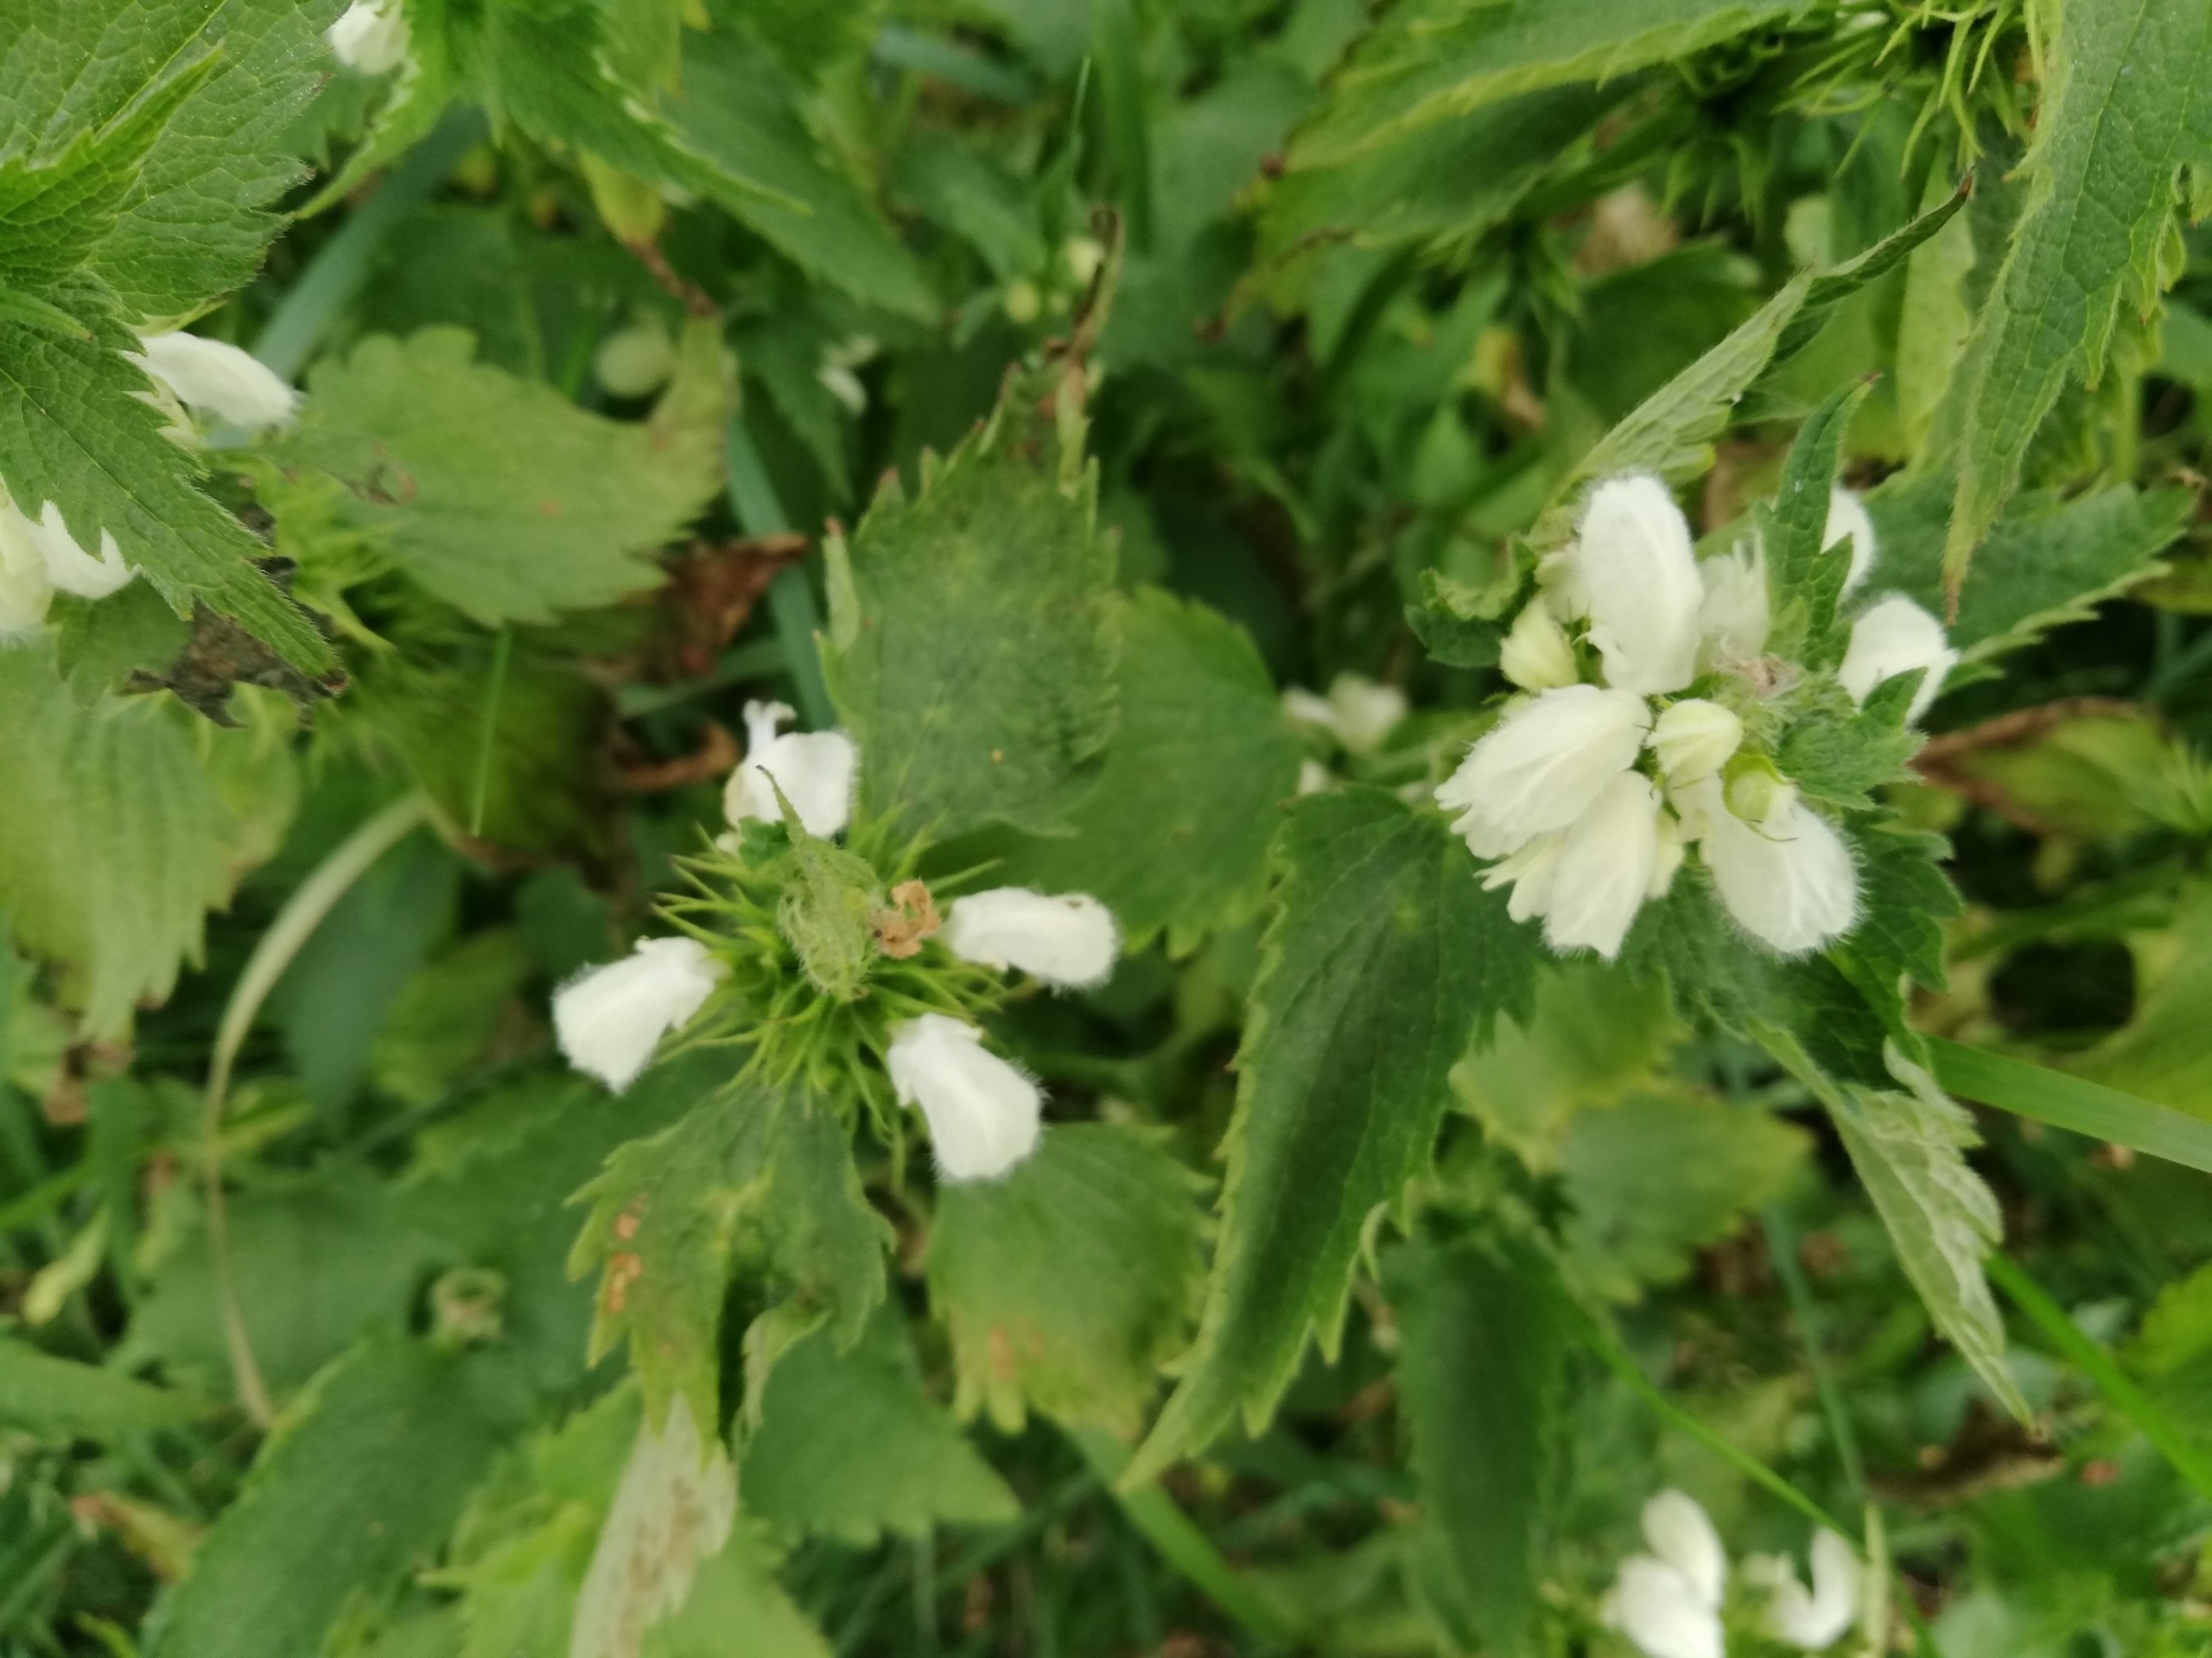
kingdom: Plantae
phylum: Tracheophyta
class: Magnoliopsida
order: Lamiales
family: Lamiaceae
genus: Lamium
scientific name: Lamium album
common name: Døvnælde
